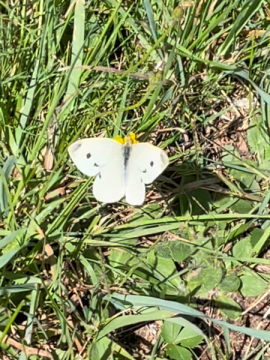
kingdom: Animalia
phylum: Arthropoda
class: Insecta
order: Lepidoptera
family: Pieridae
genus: Pieris
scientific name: Pieris rapae
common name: Cabbage White
